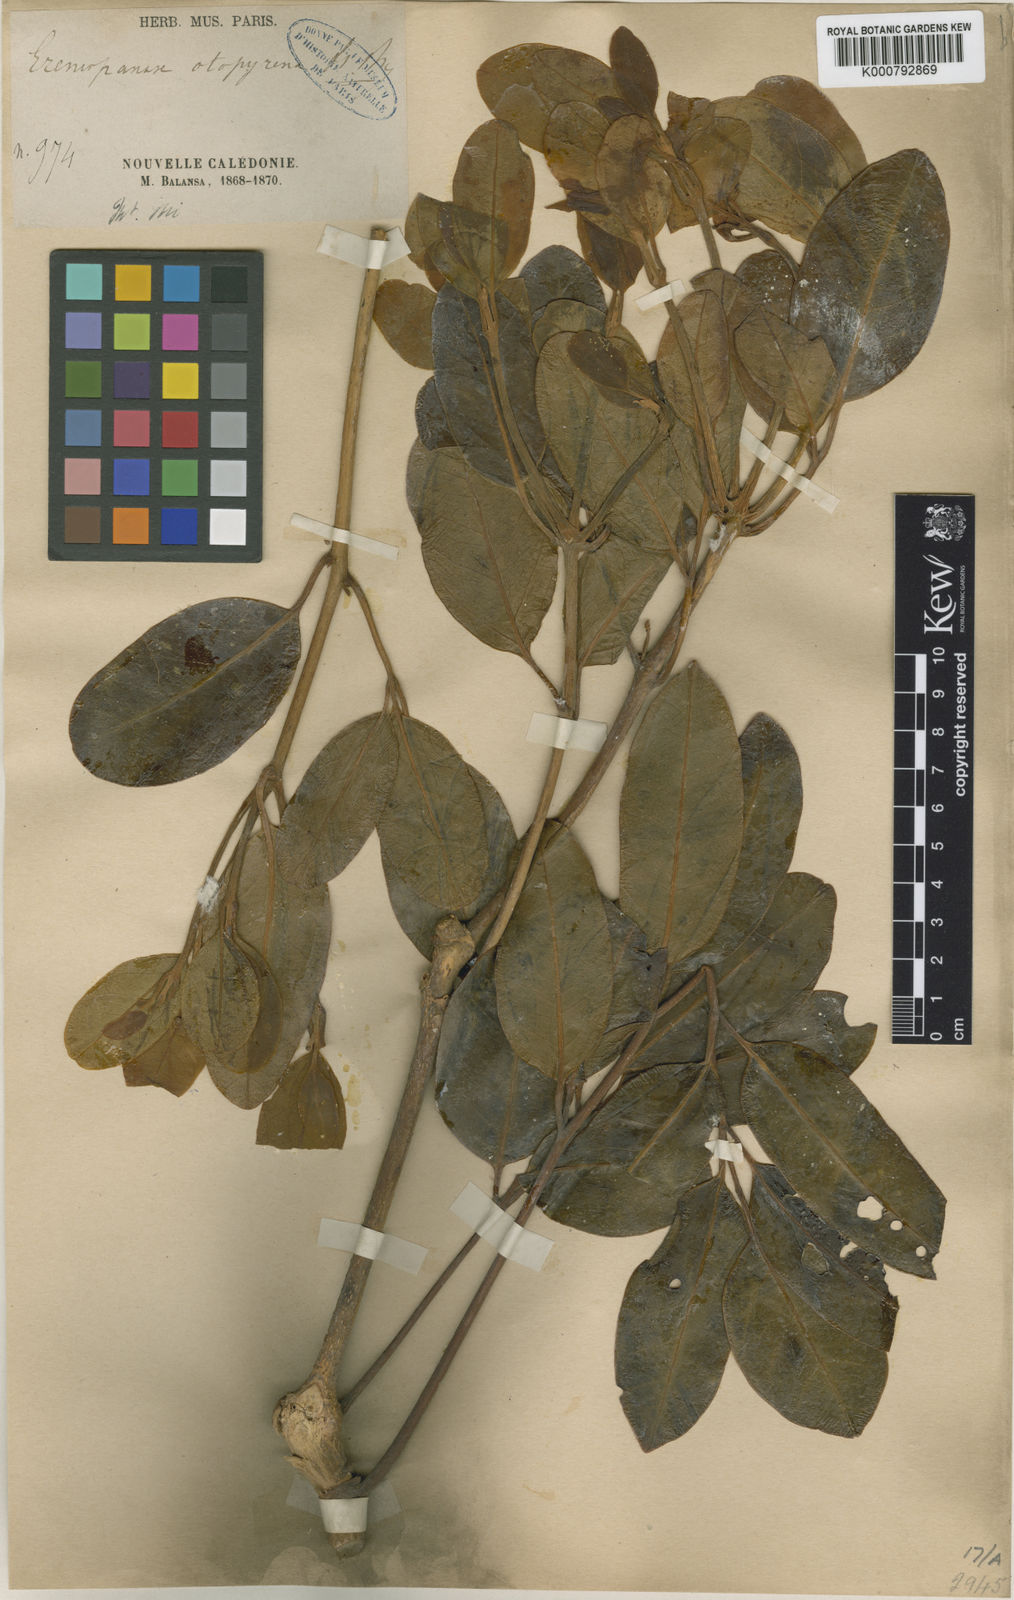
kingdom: Plantae
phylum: Tracheophyta
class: Magnoliopsida
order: Apiales
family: Araliaceae
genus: Polyscias
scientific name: Polyscias otopyrena
